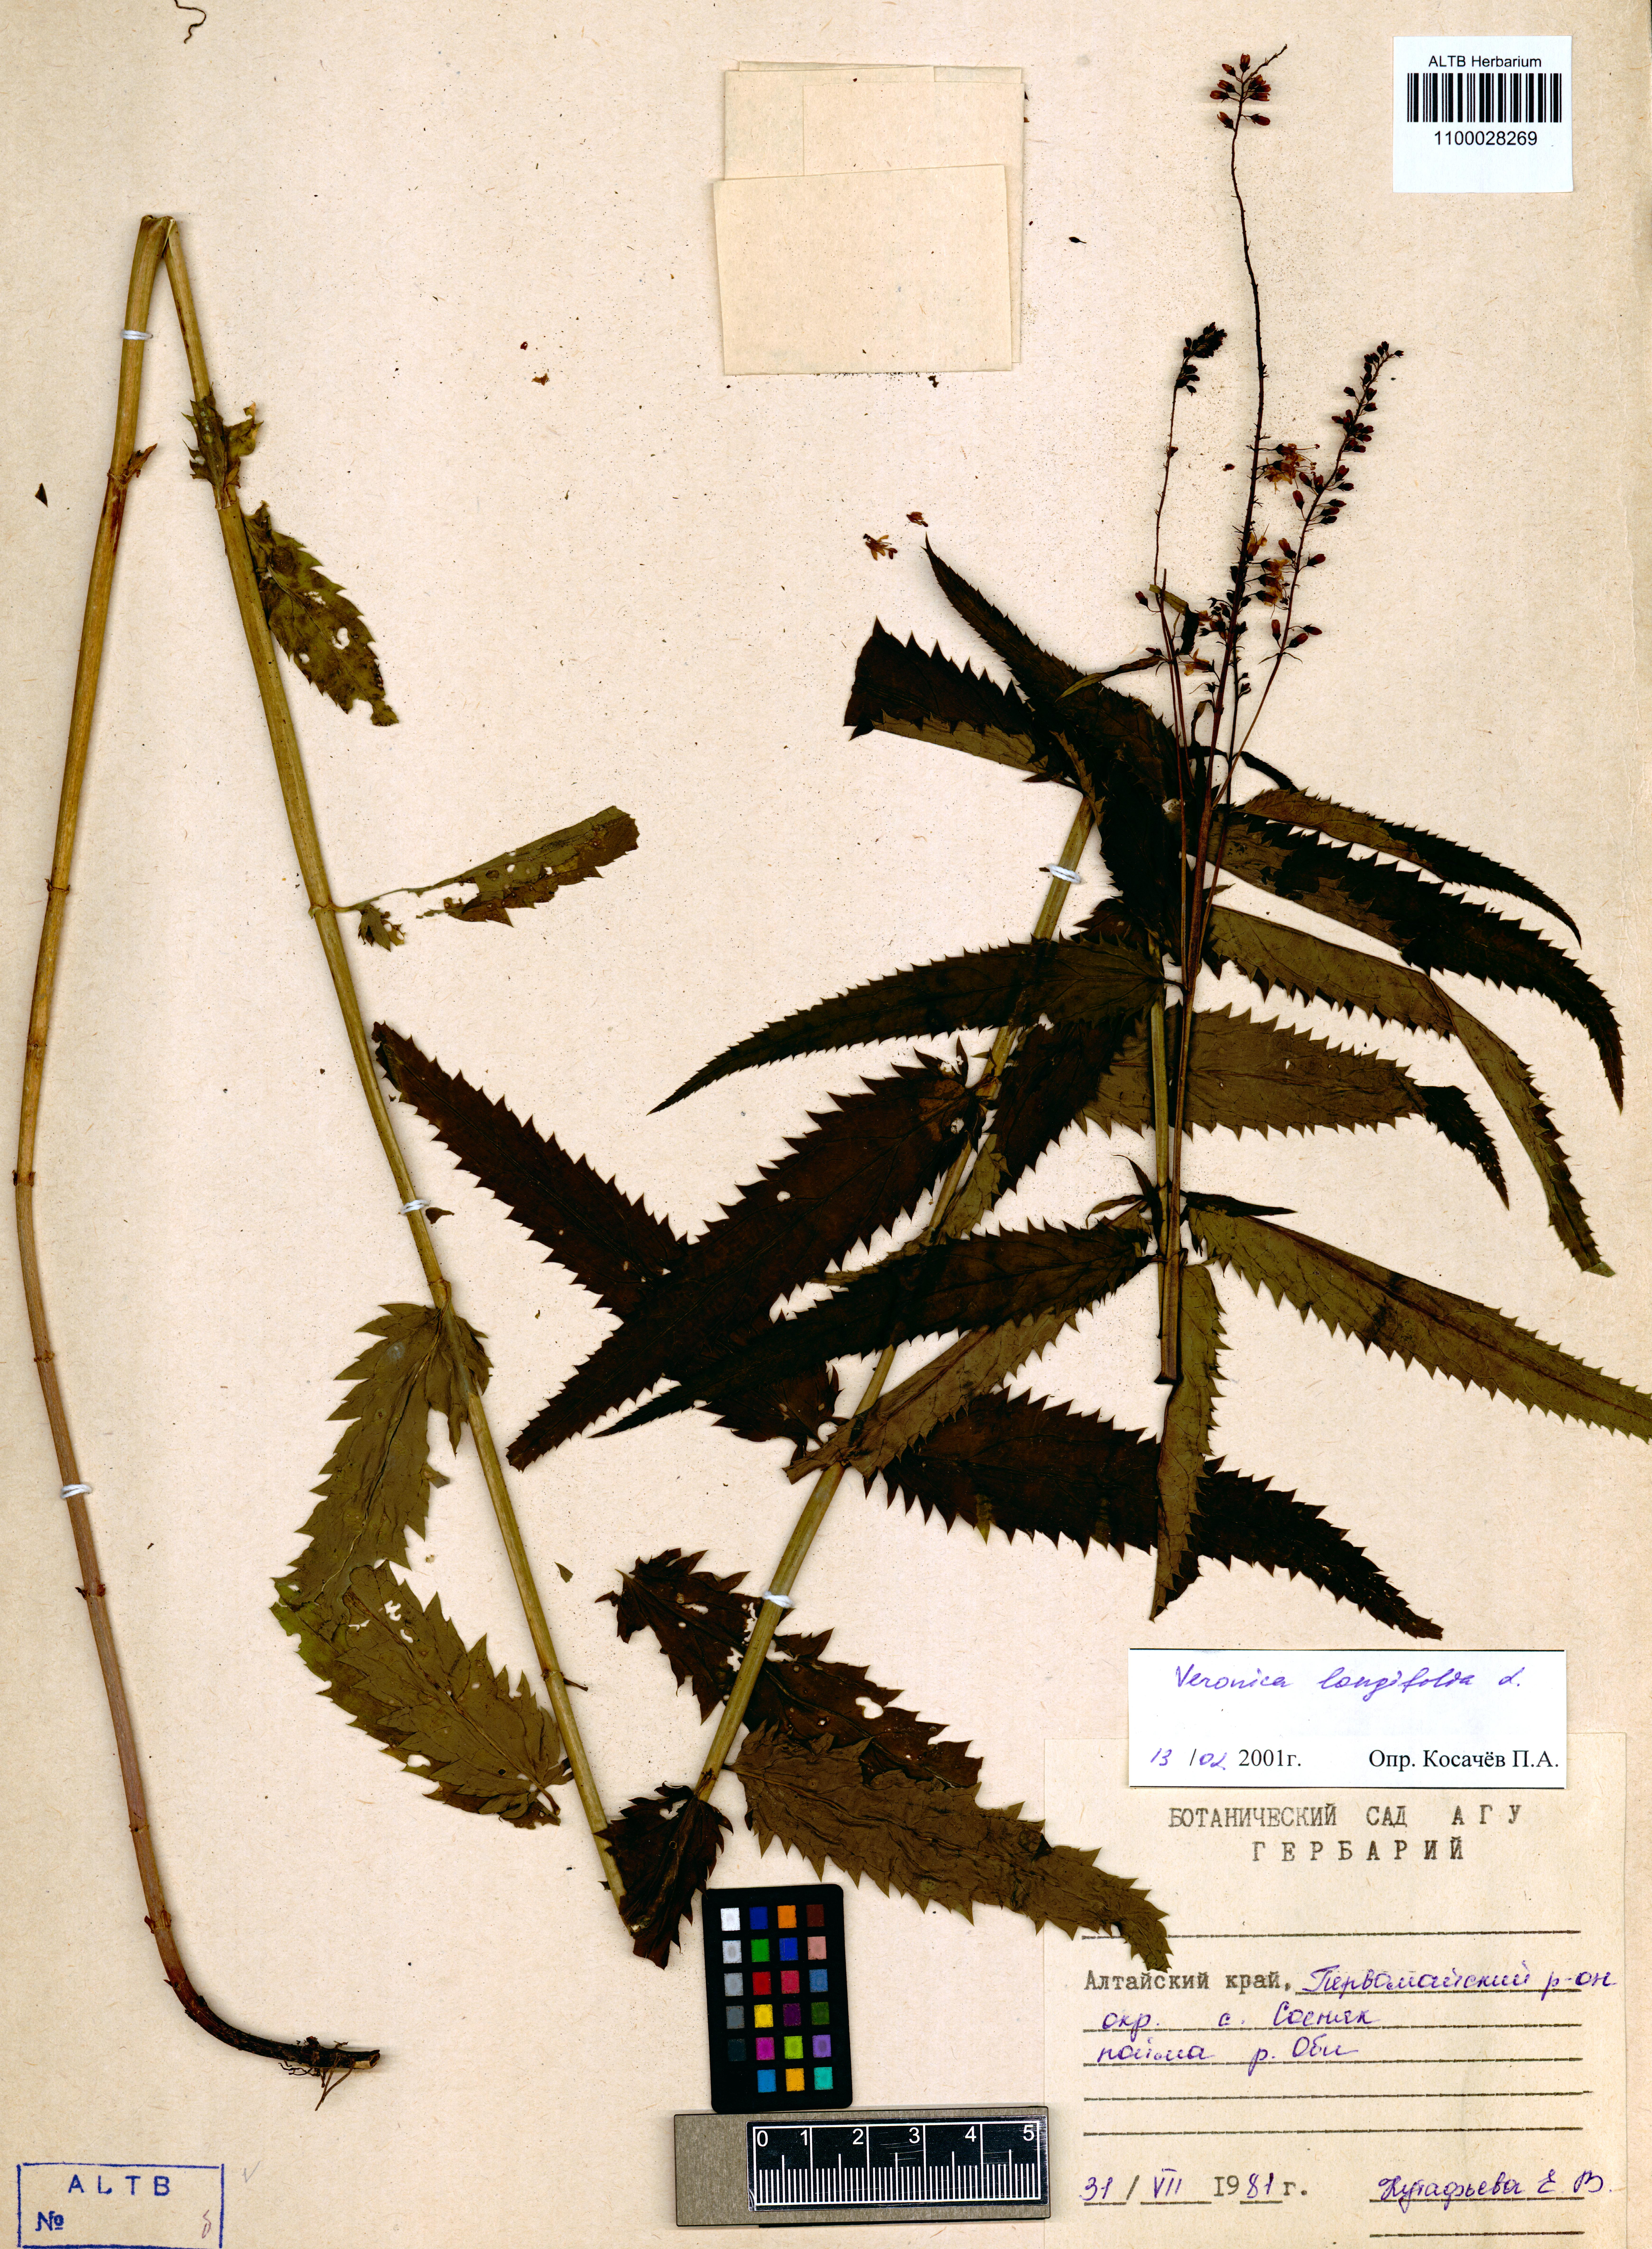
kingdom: Plantae
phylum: Tracheophyta
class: Magnoliopsida
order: Lamiales
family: Plantaginaceae
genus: Veronica
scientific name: Veronica longifolia
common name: Garden speedwell
